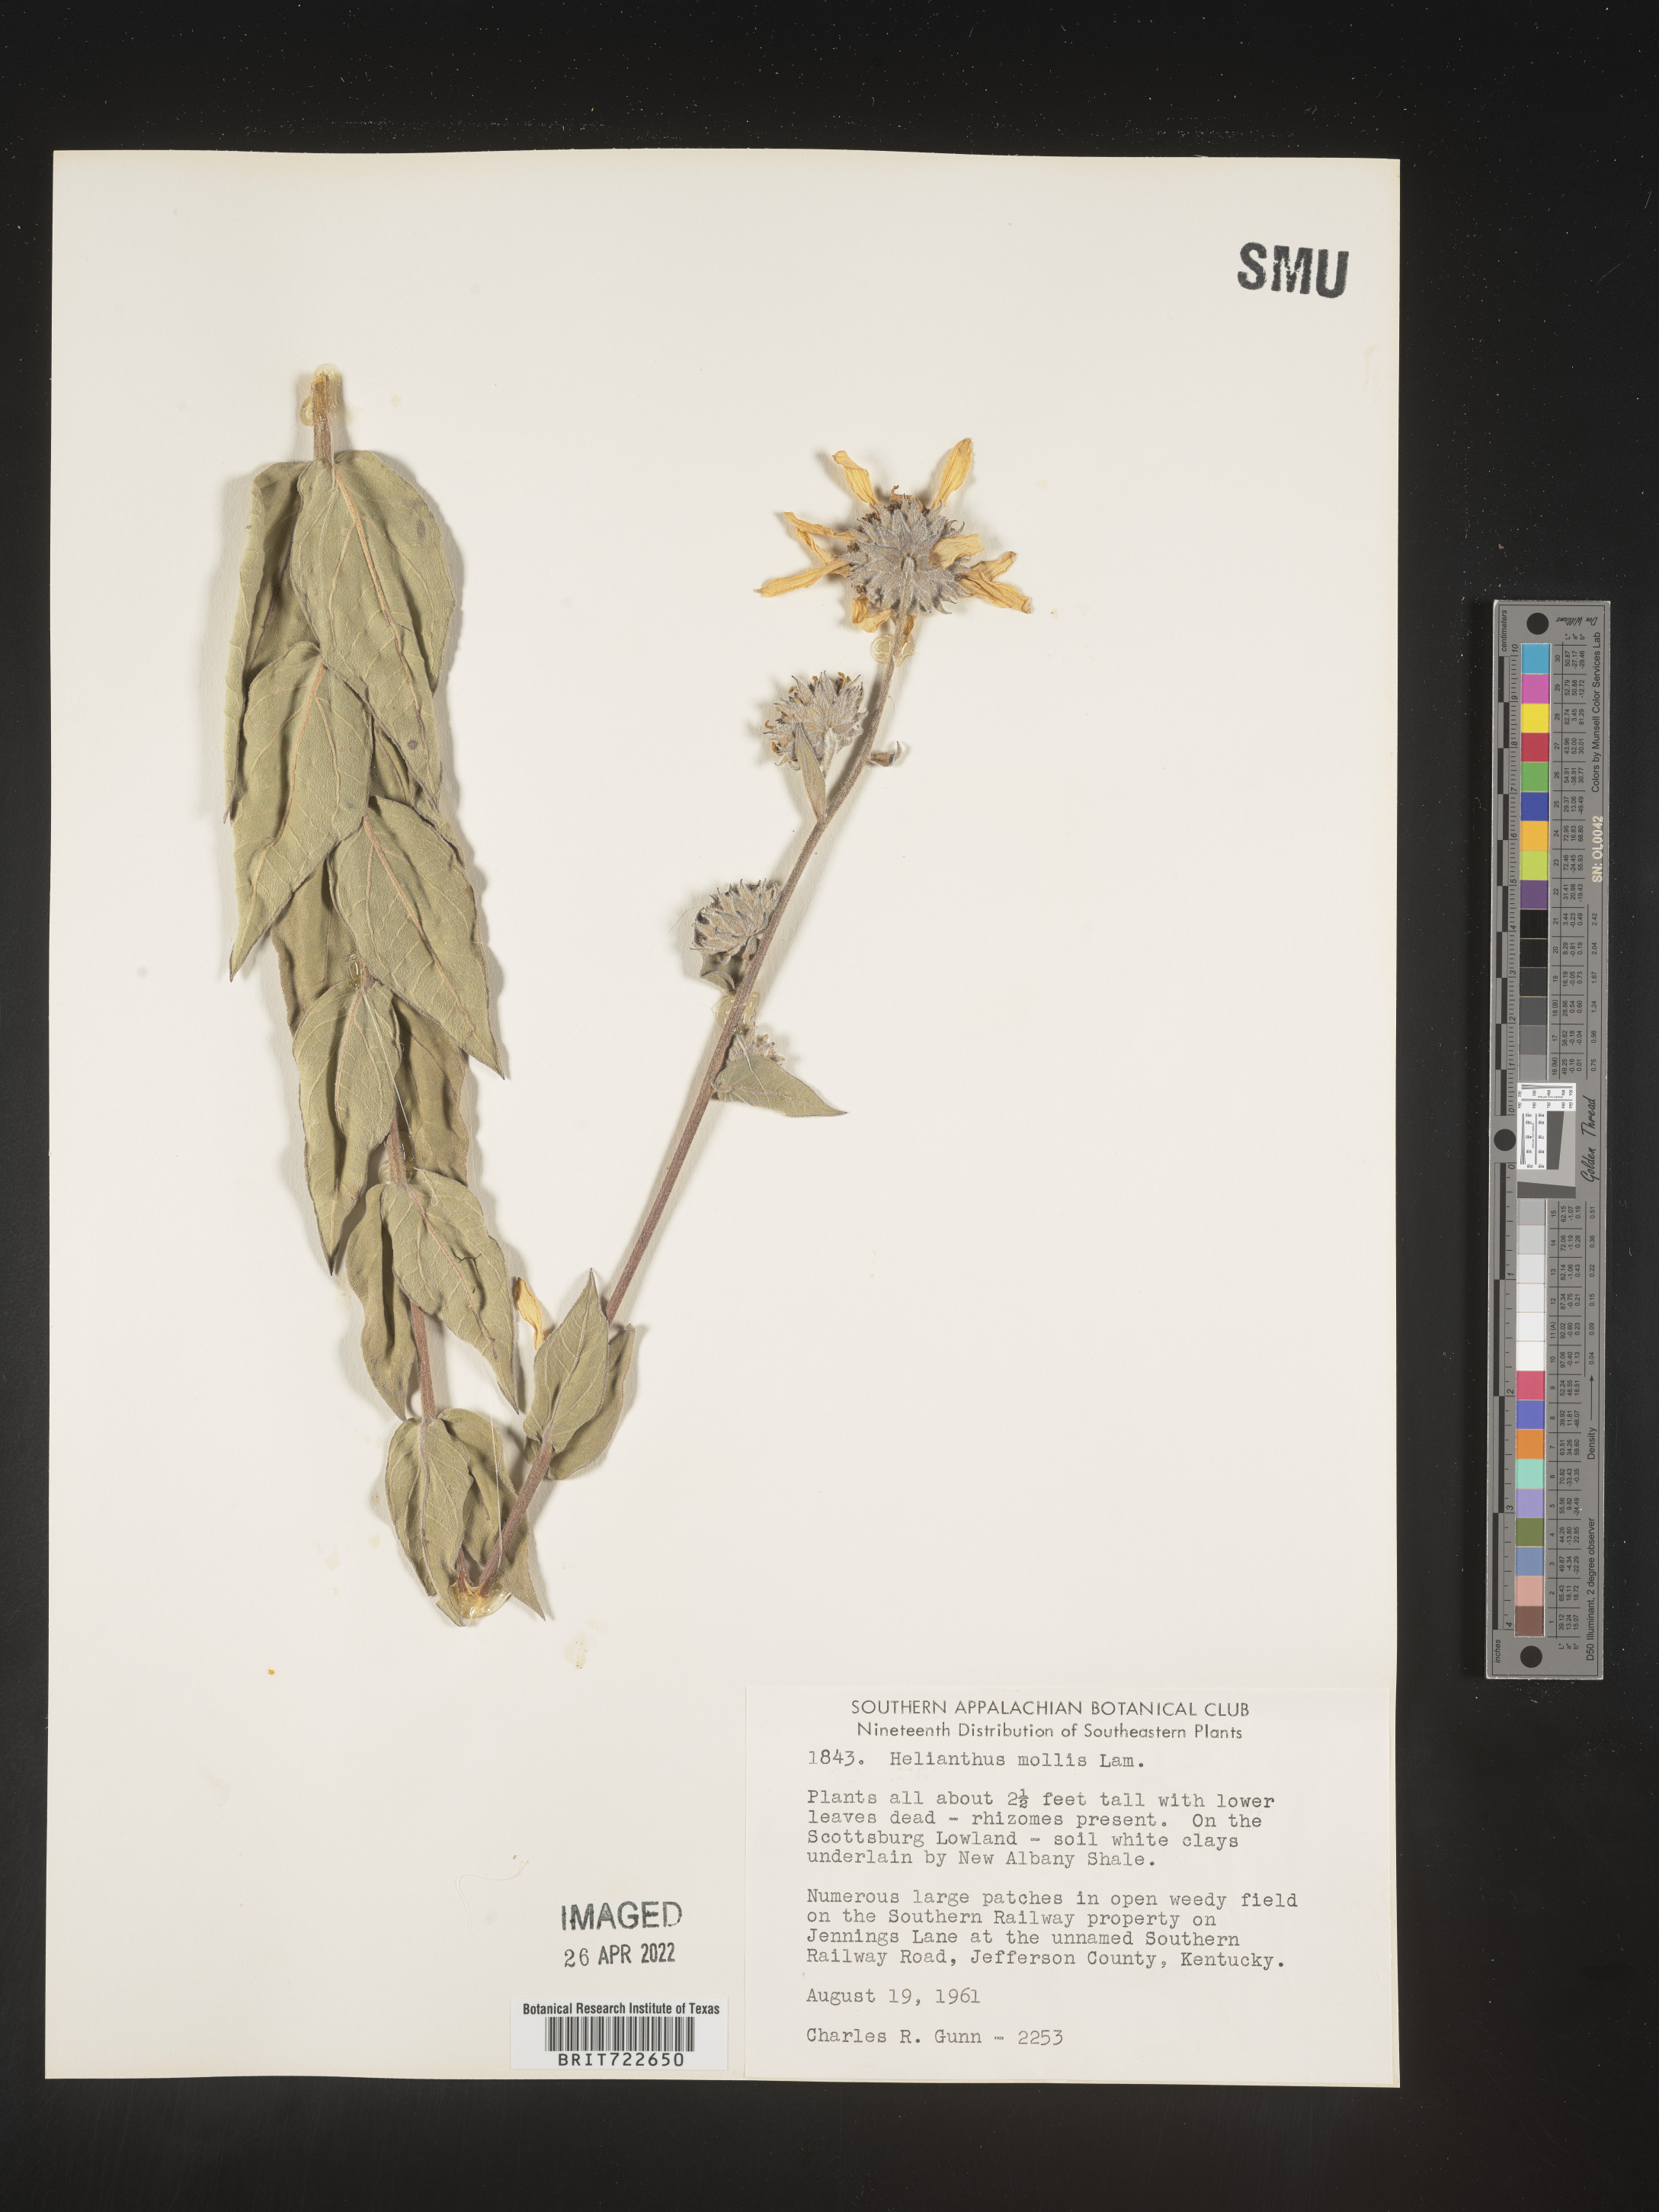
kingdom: Plantae
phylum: Tracheophyta
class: Magnoliopsida
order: Asterales
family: Asteraceae
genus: Helianthus
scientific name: Helianthus mollis
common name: Ashy sunflower
